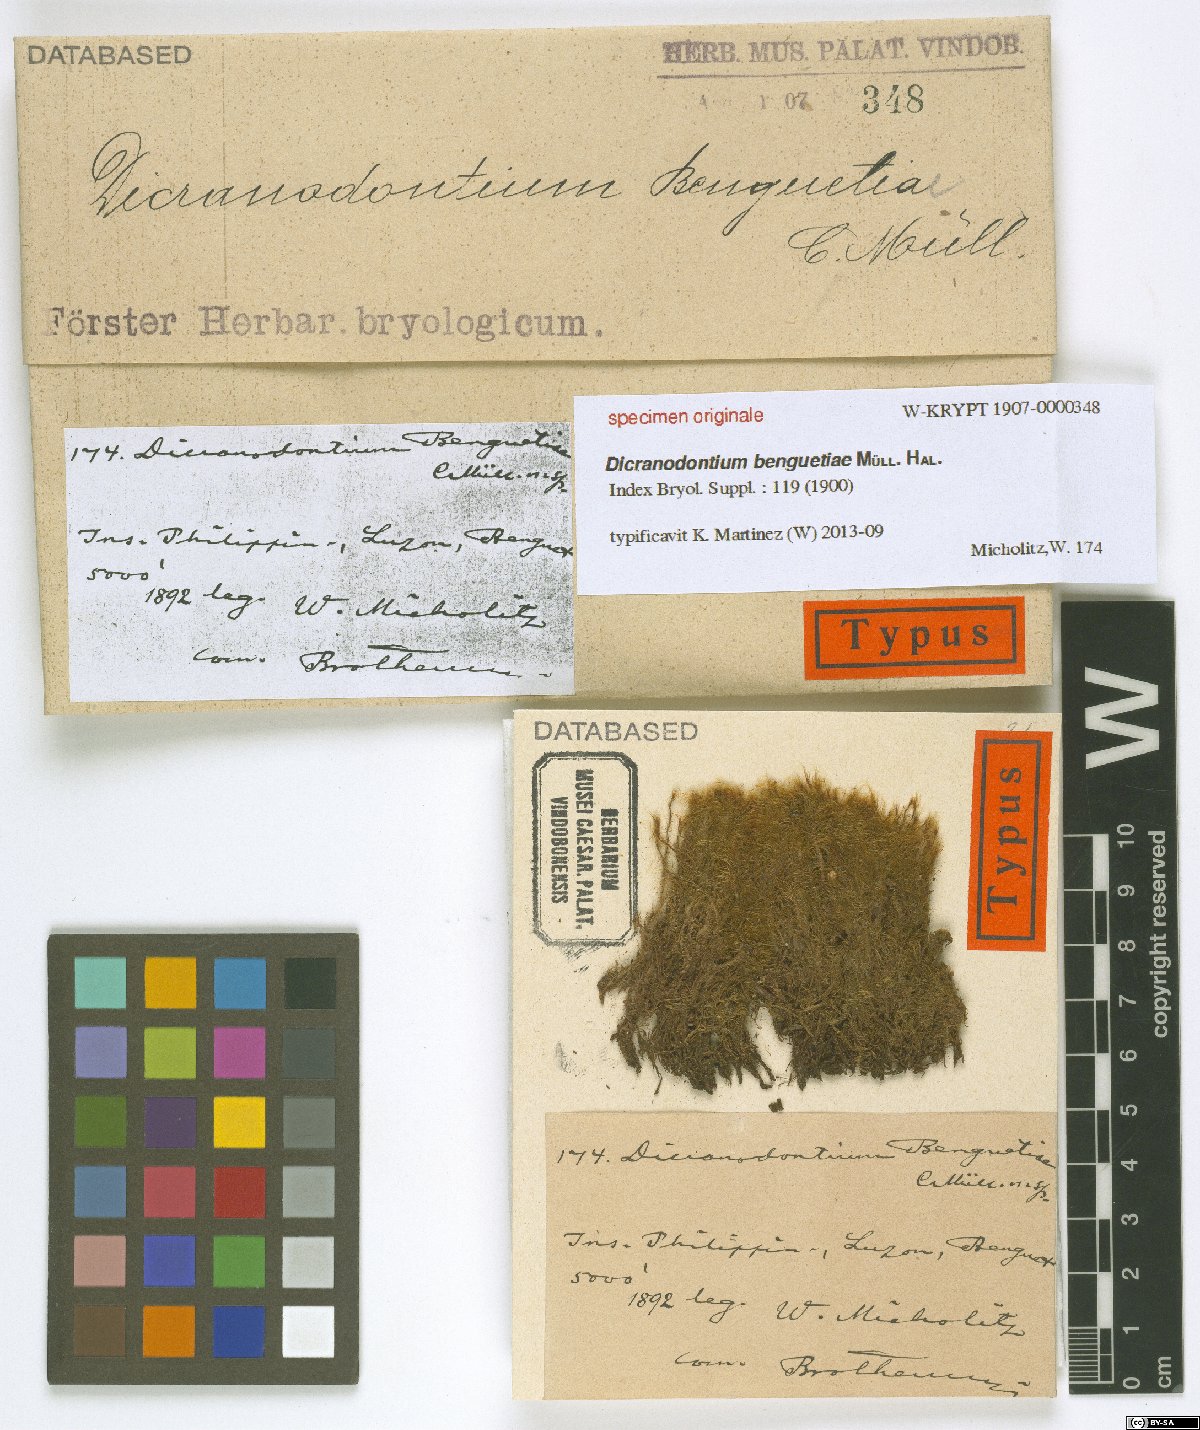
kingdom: Plantae
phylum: Bryophyta
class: Bryopsida
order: Dicranales
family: Dicranaceae
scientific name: Dicranaceae
